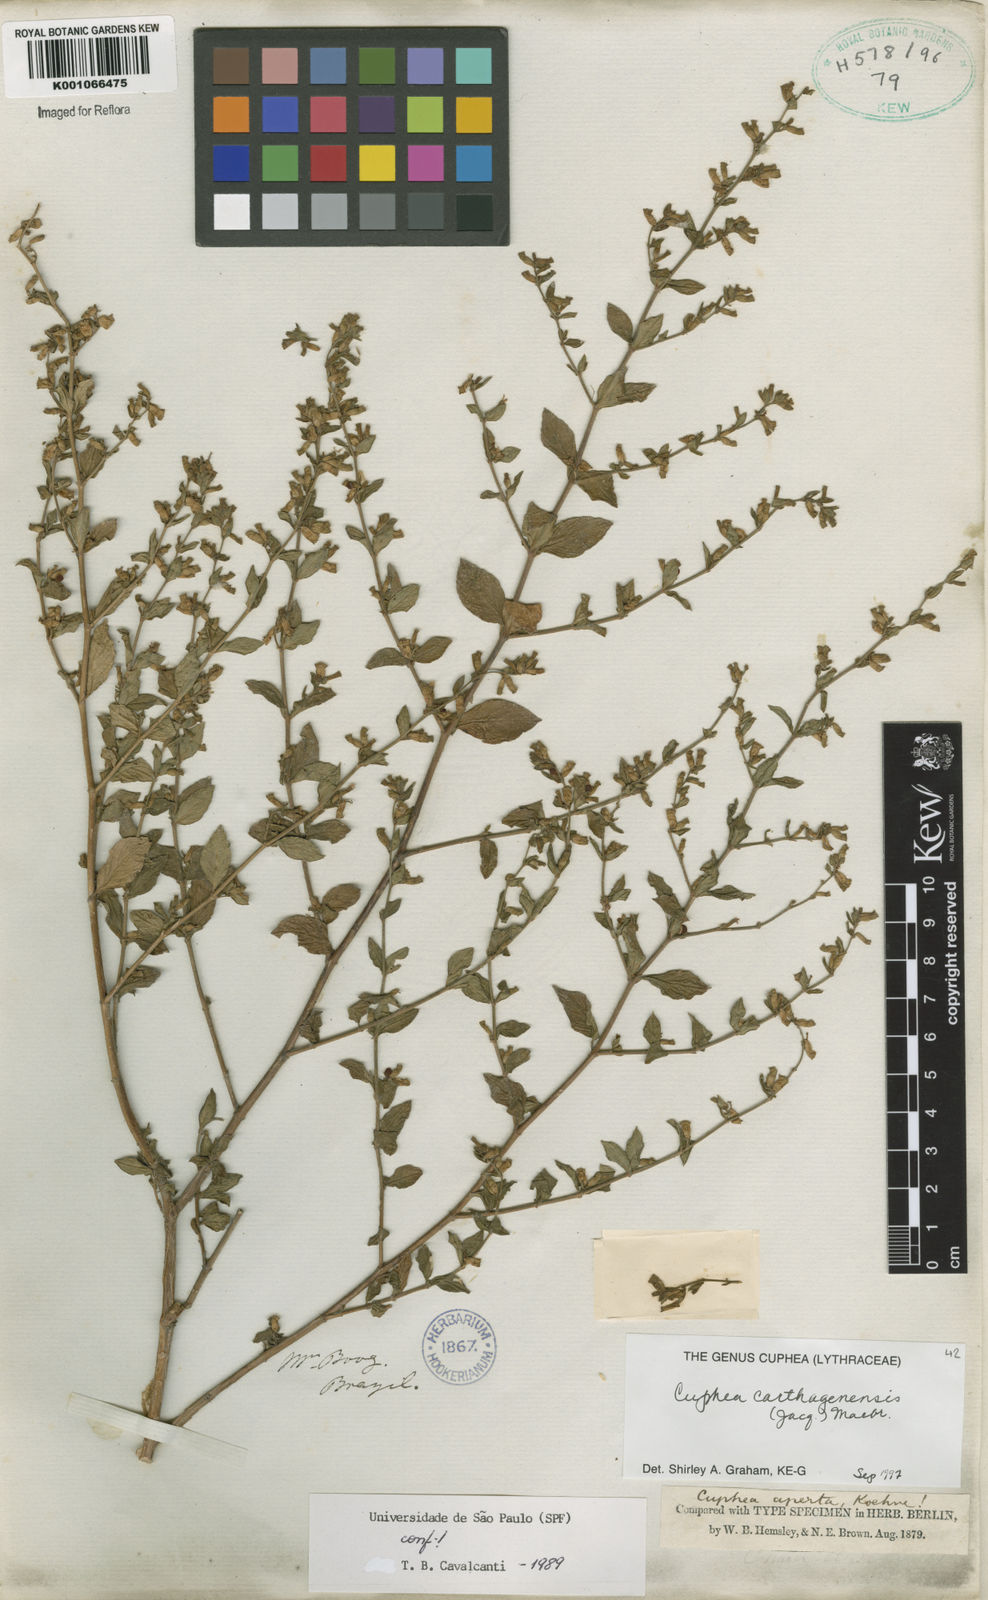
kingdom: Plantae
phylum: Tracheophyta
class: Magnoliopsida
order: Myrtales
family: Lythraceae
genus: Cuphea
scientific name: Cuphea carthagenensis
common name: Colombian waxweed
